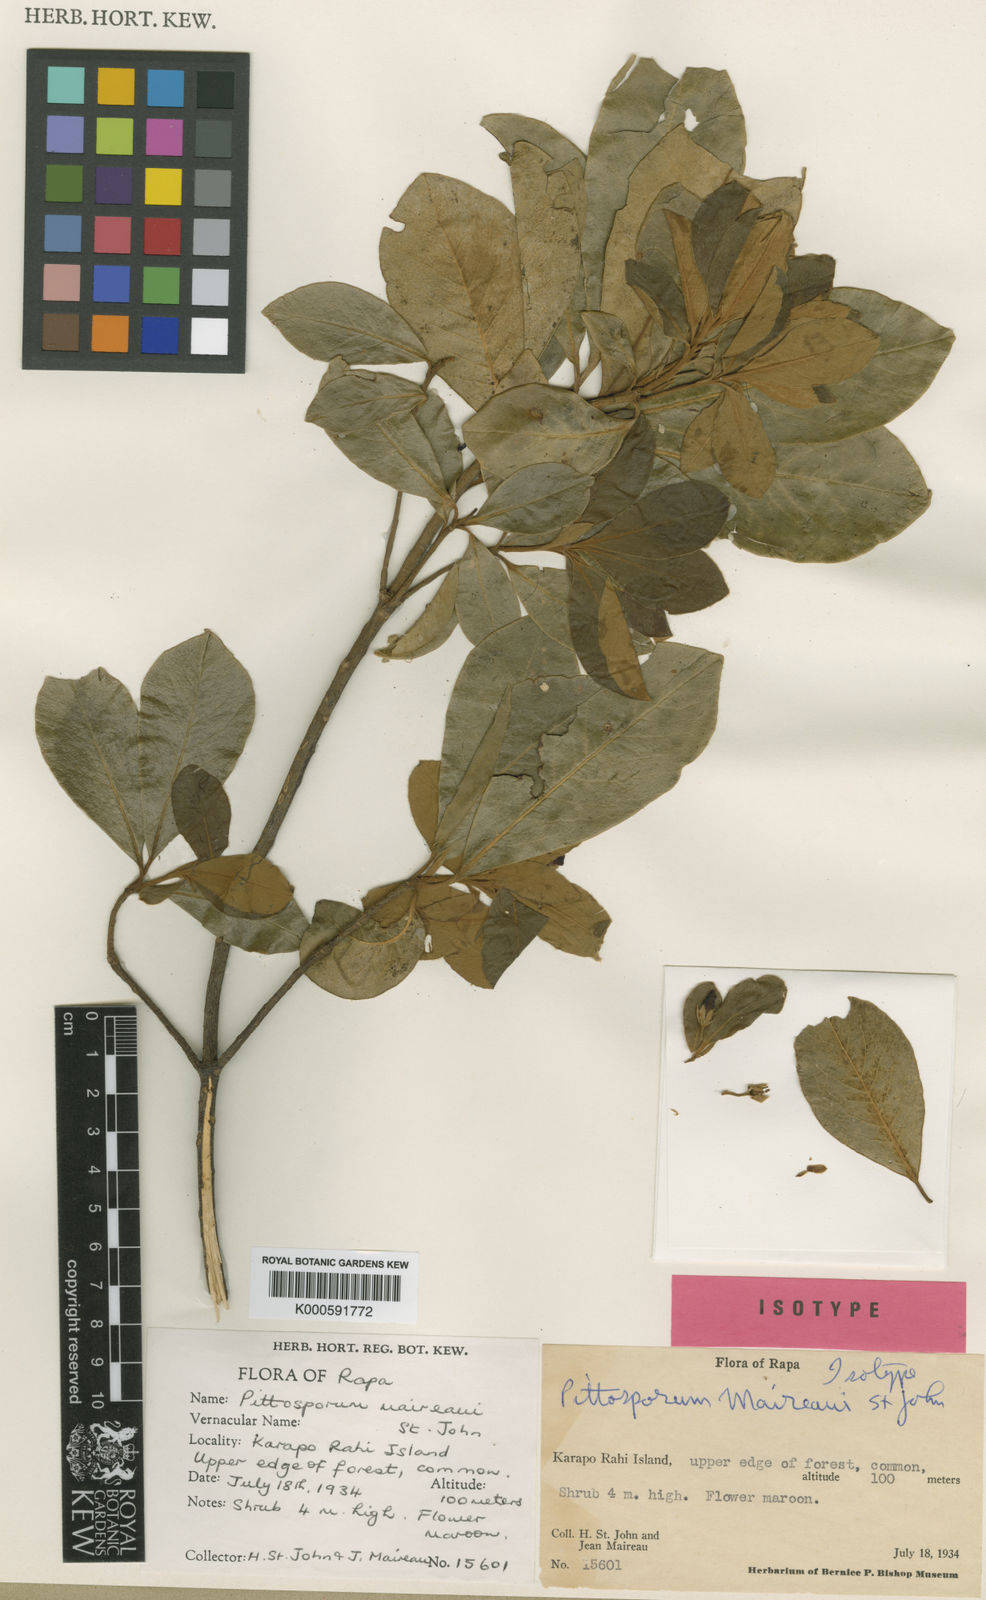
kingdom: Plantae
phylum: Tracheophyta
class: Magnoliopsida
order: Apiales
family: Pittosporaceae
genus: Pittosporum
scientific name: Pittosporum maireaui
